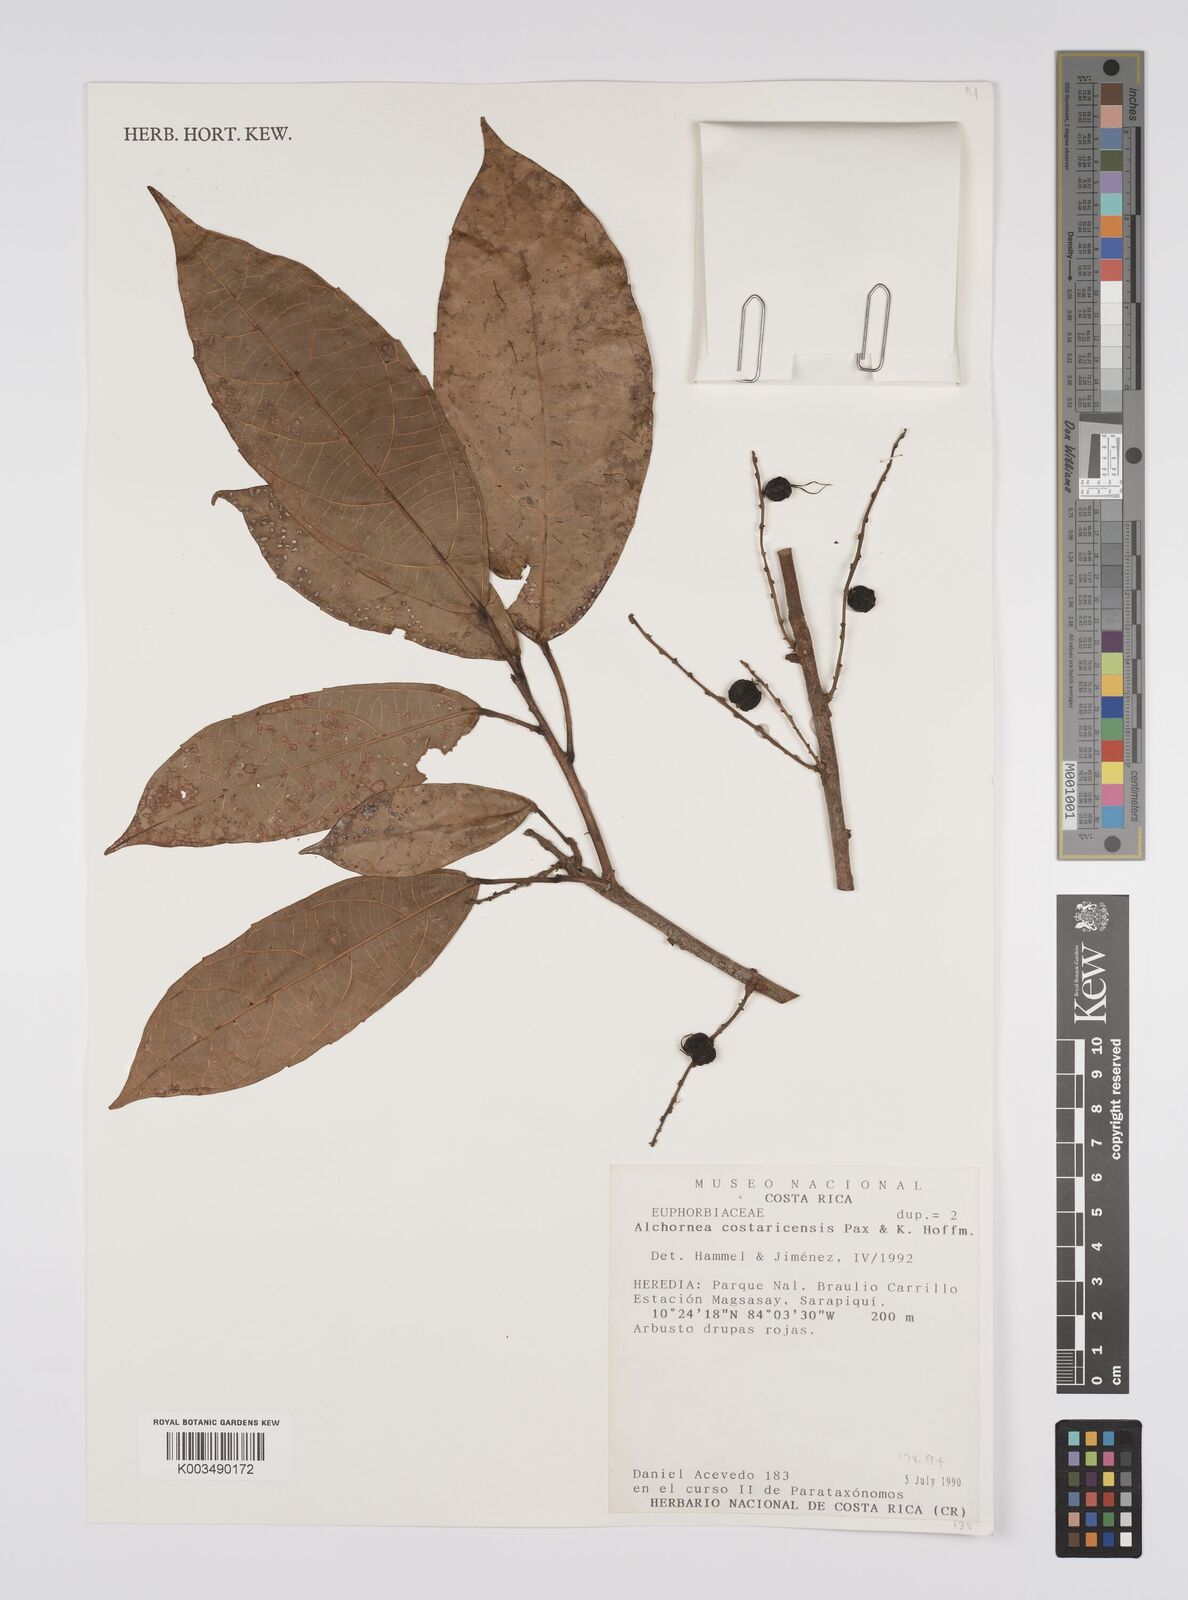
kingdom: Plantae
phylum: Tracheophyta
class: Magnoliopsida
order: Malpighiales
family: Euphorbiaceae
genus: Alchornea
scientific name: Alchornea costaricensis
